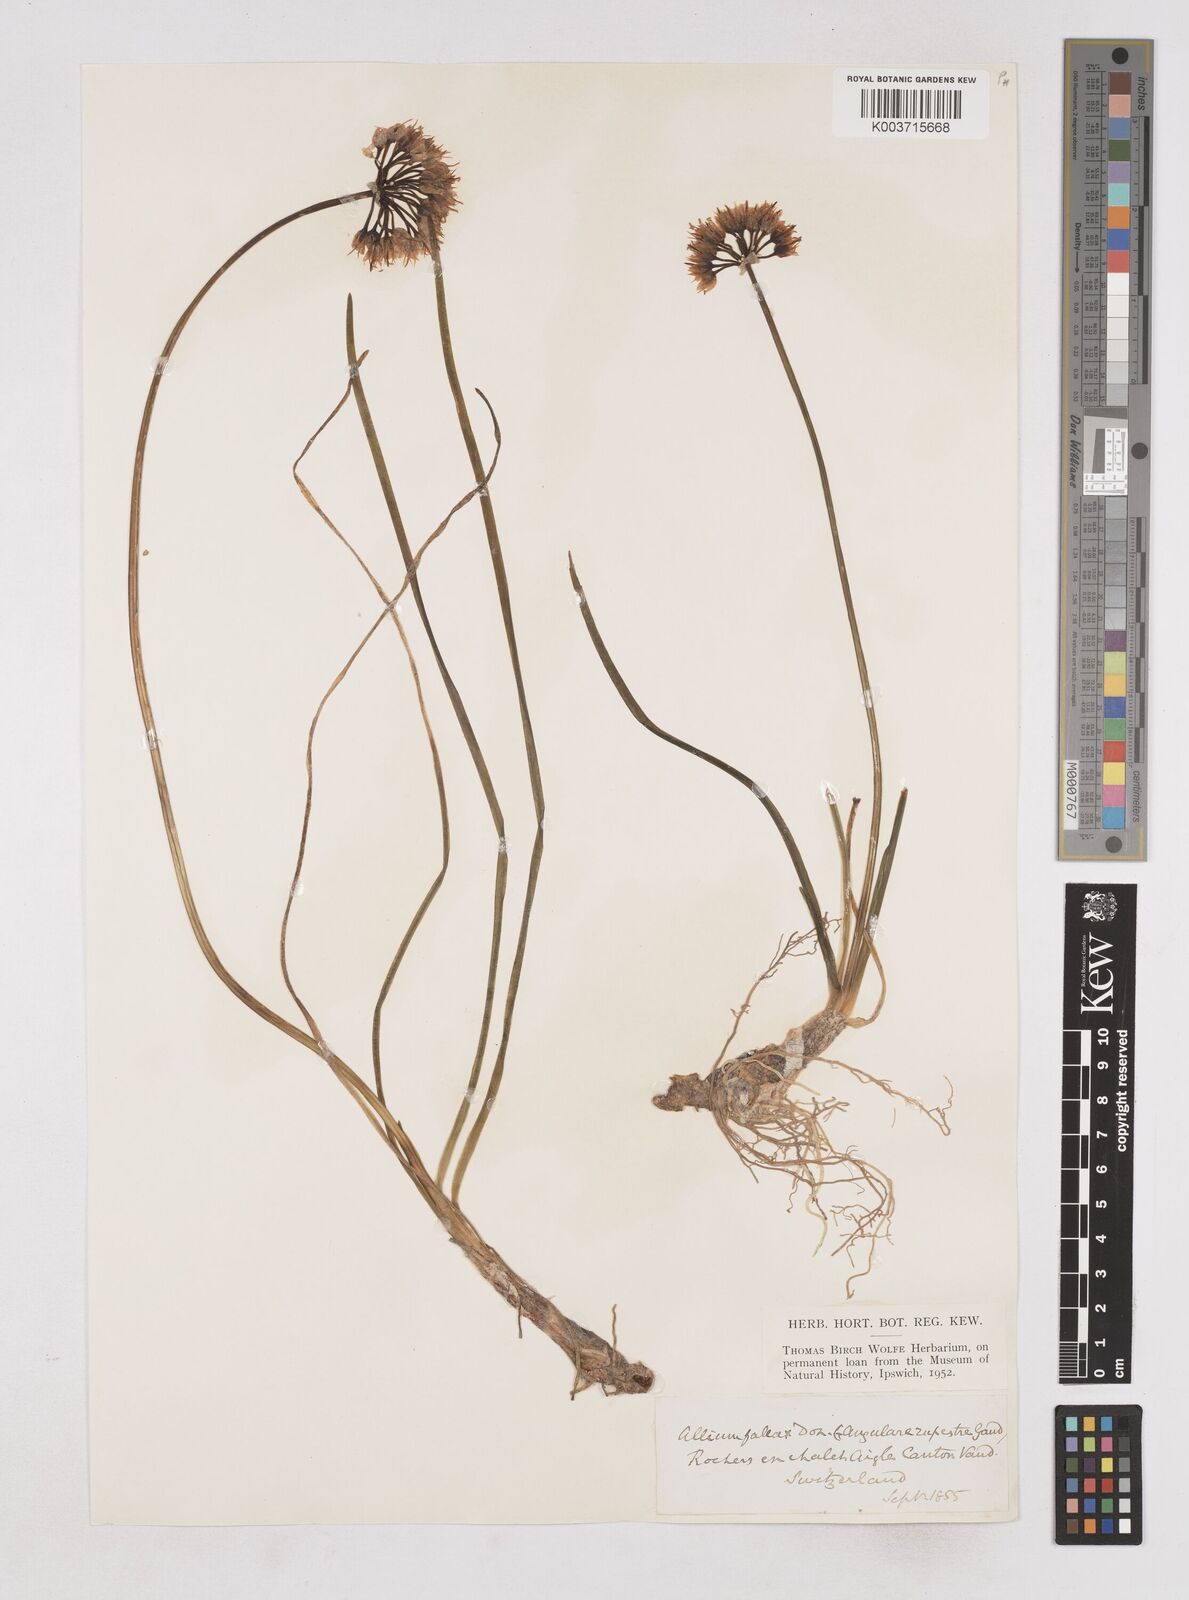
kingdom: Plantae
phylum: Tracheophyta
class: Liliopsida
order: Asparagales
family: Amaryllidaceae
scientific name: Amaryllidaceae
